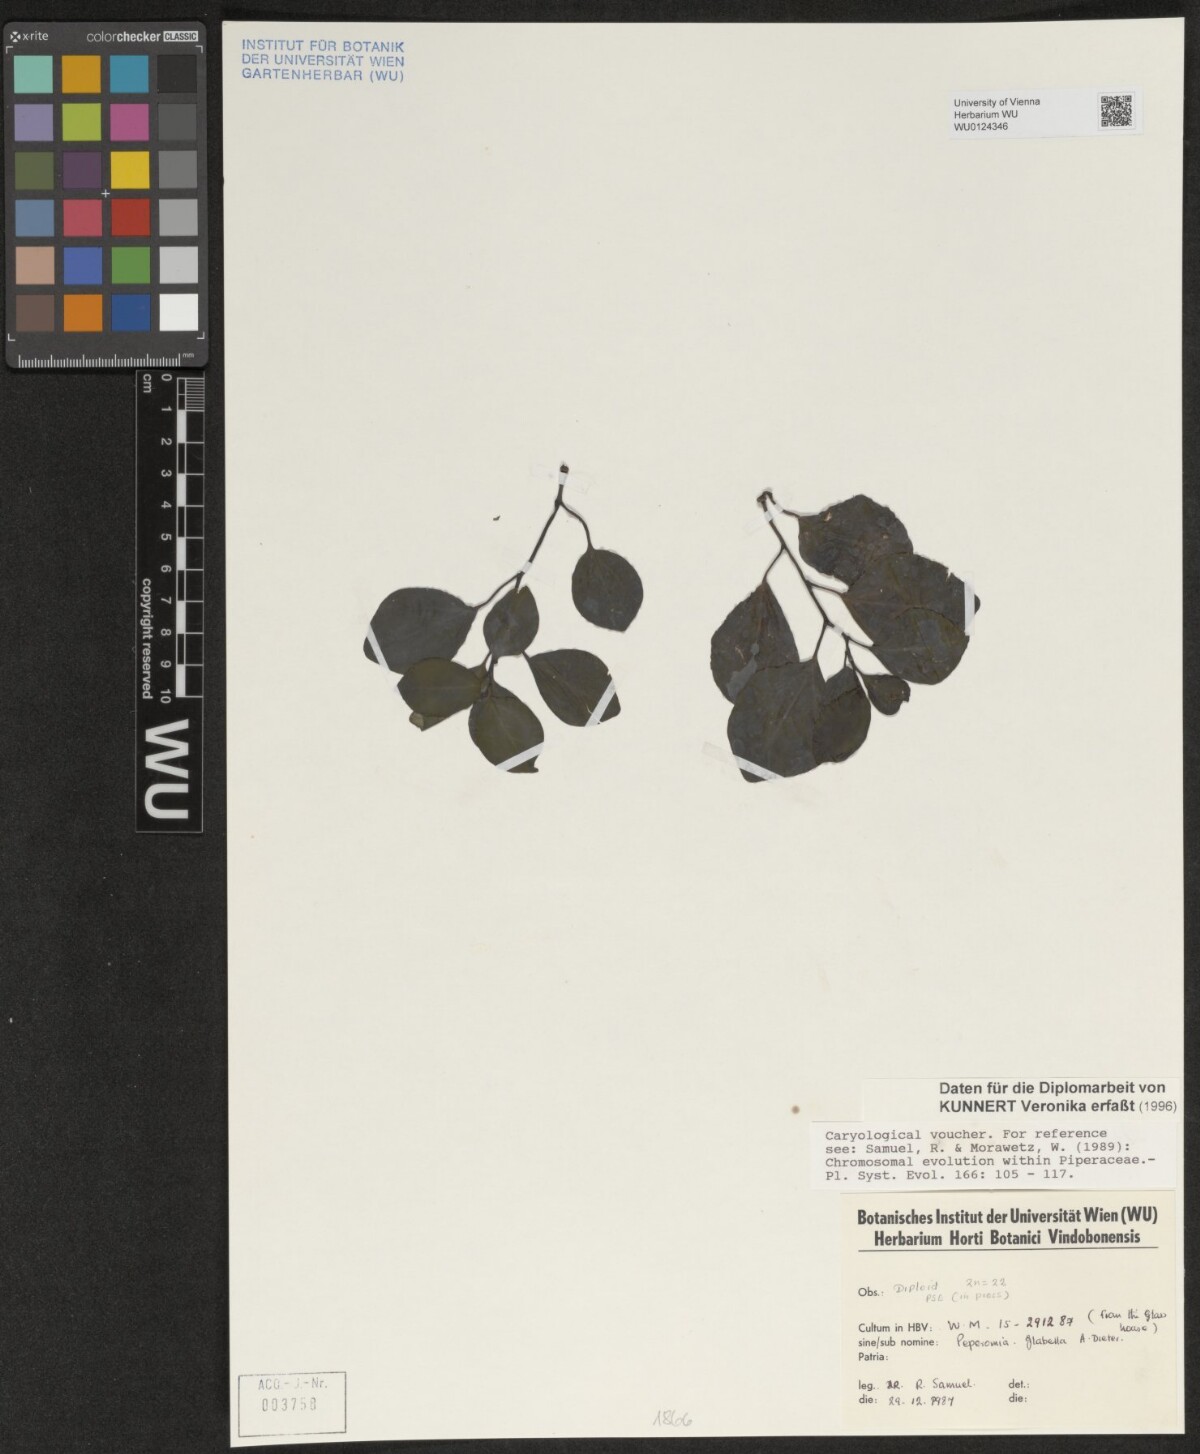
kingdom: Plantae
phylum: Tracheophyta
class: Magnoliopsida
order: Piperales
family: Piperaceae
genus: Peperomia
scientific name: Peperomia glabella
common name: Cypress peperomia
